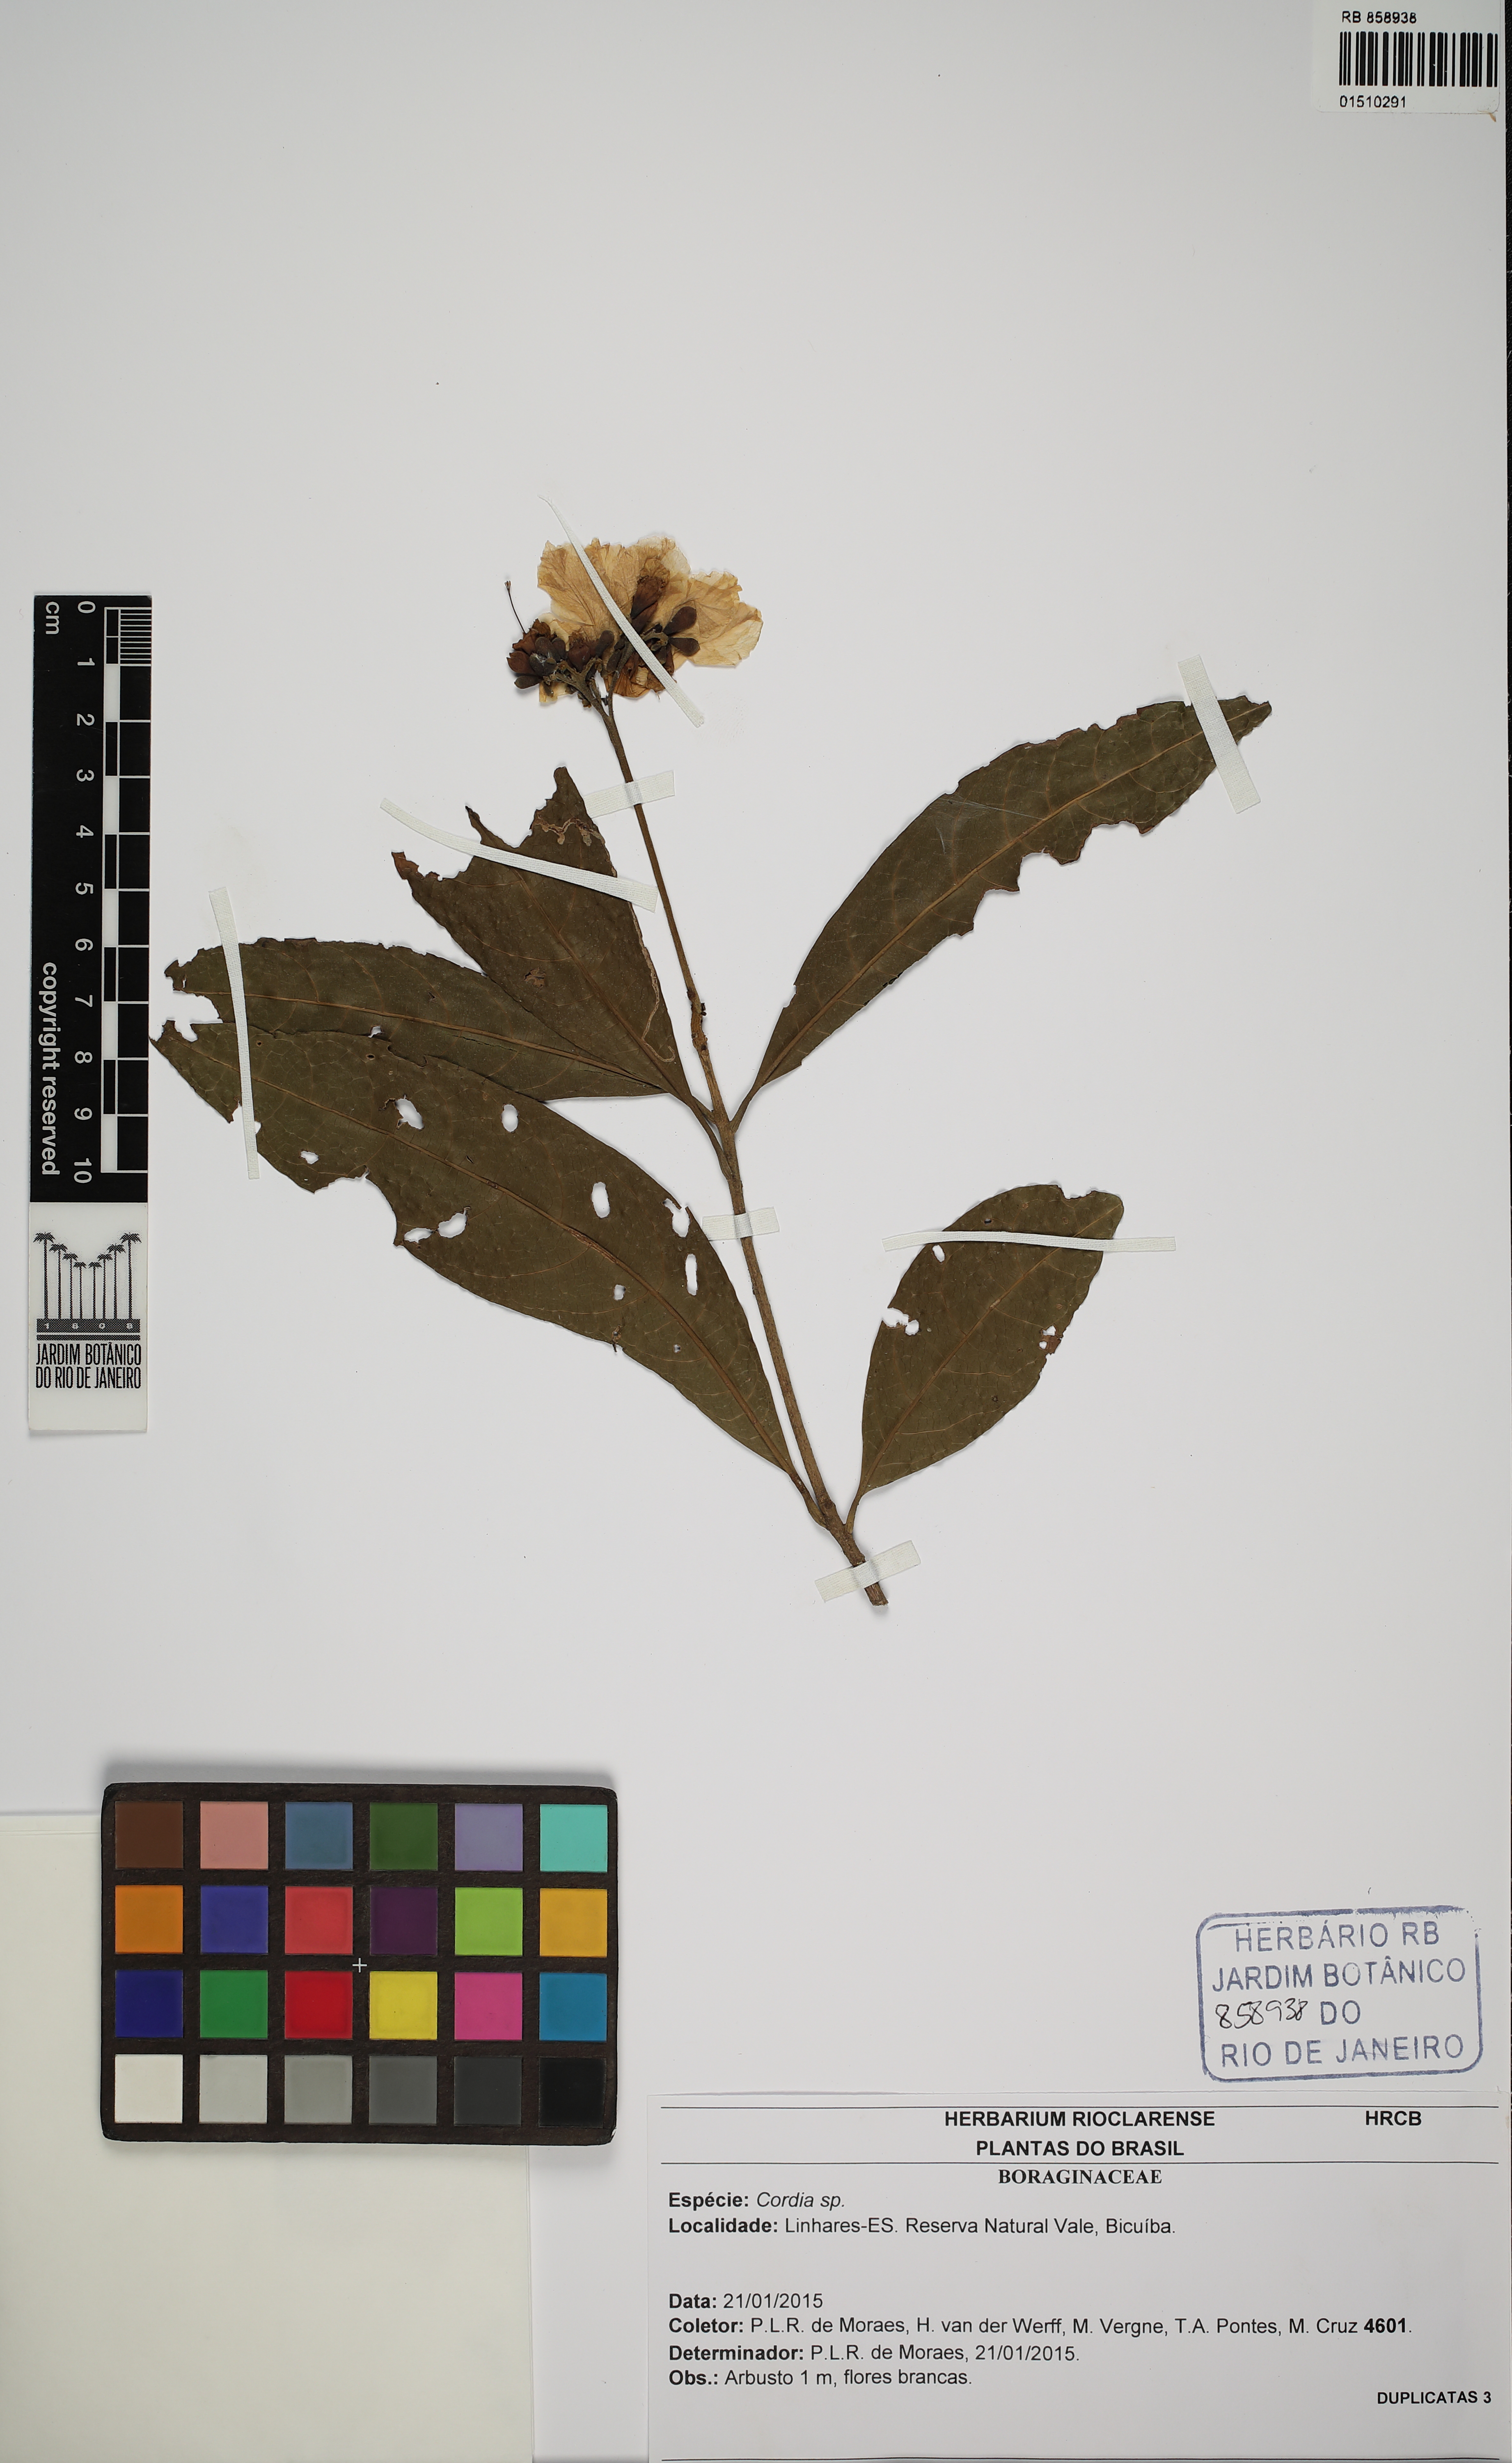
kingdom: Plantae
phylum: Tracheophyta
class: Magnoliopsida
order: Boraginales
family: Cordiaceae
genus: Cordia
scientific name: Cordia
